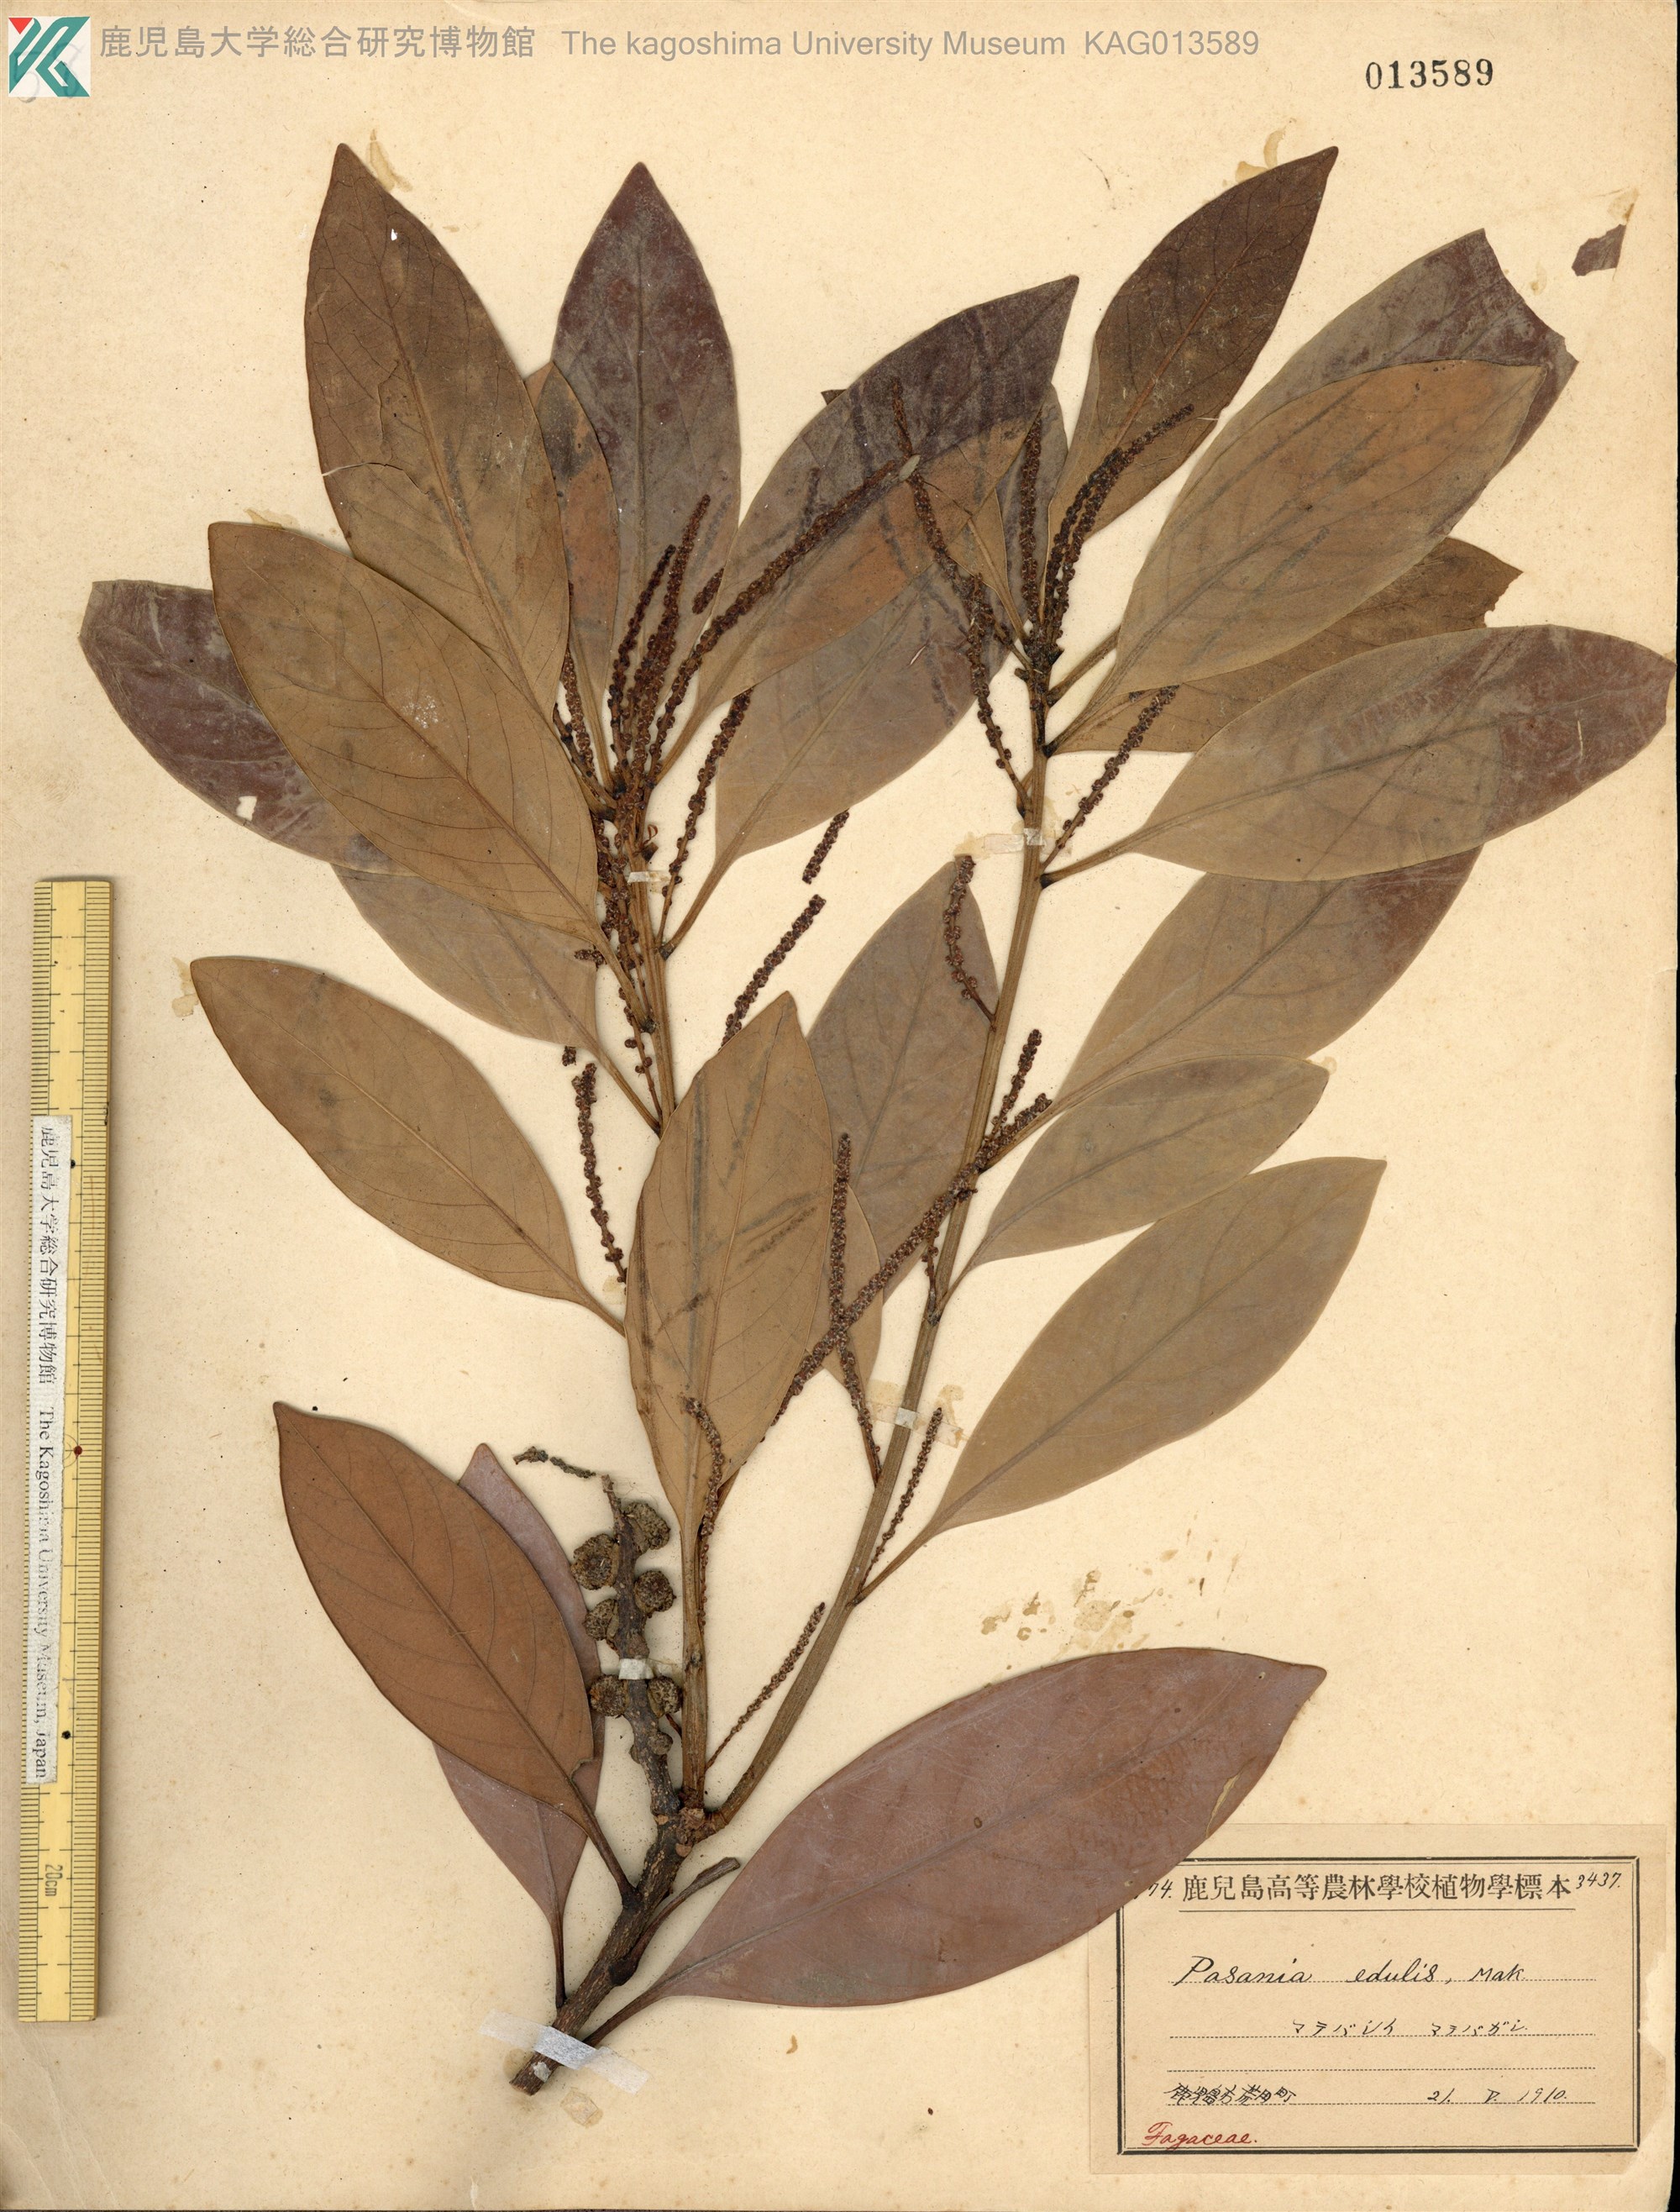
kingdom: Plantae
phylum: Tracheophyta
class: Magnoliopsida
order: Fagales
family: Fagaceae
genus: Lithocarpus
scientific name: Lithocarpus edulis
